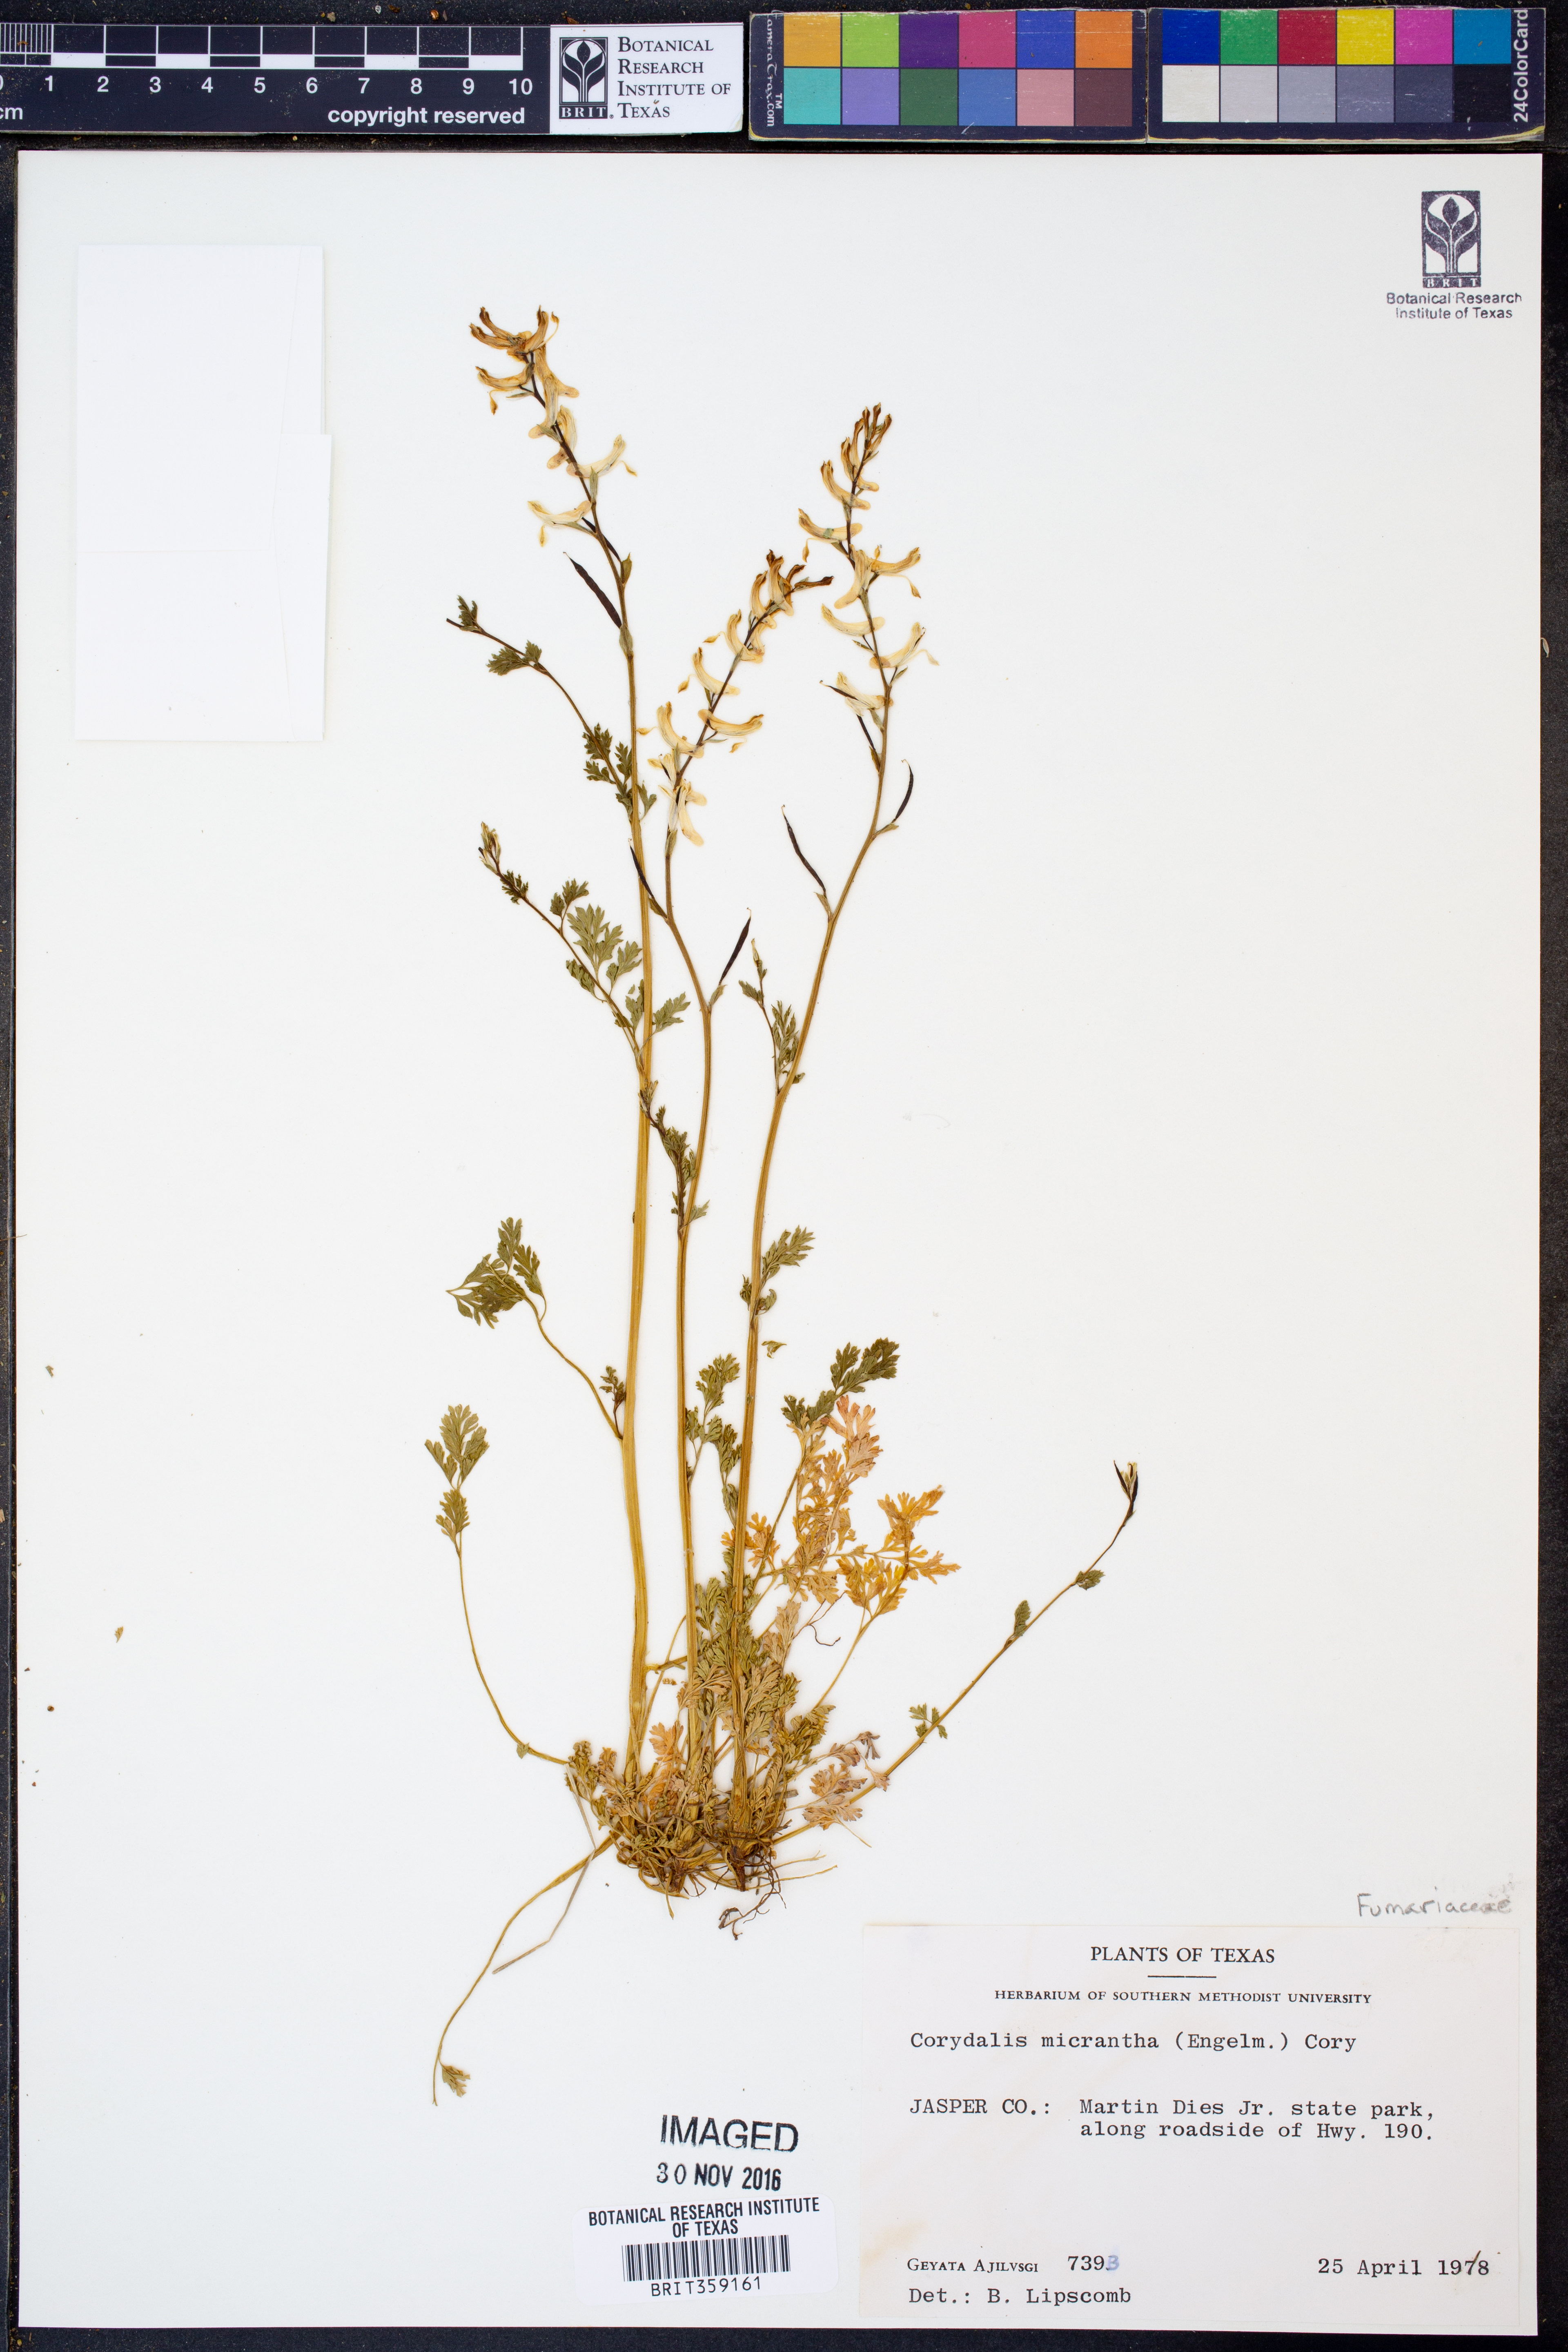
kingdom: Plantae
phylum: Tracheophyta
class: Magnoliopsida
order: Ranunculales
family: Papaveraceae
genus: Corydalis
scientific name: Corydalis micrantha
